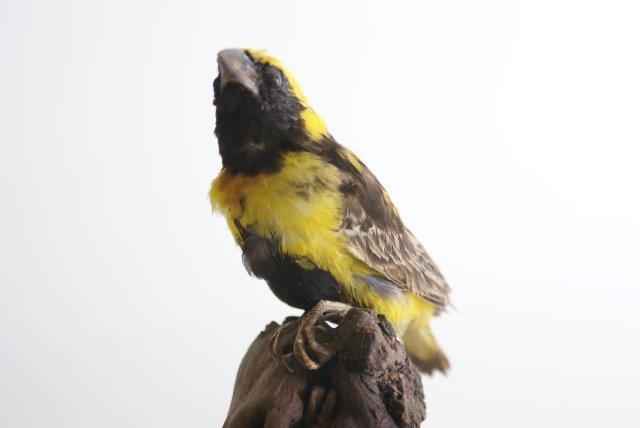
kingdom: Animalia
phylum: Chordata
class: Aves
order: Passeriformes
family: Ploceidae
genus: Euplectes
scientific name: Euplectes
